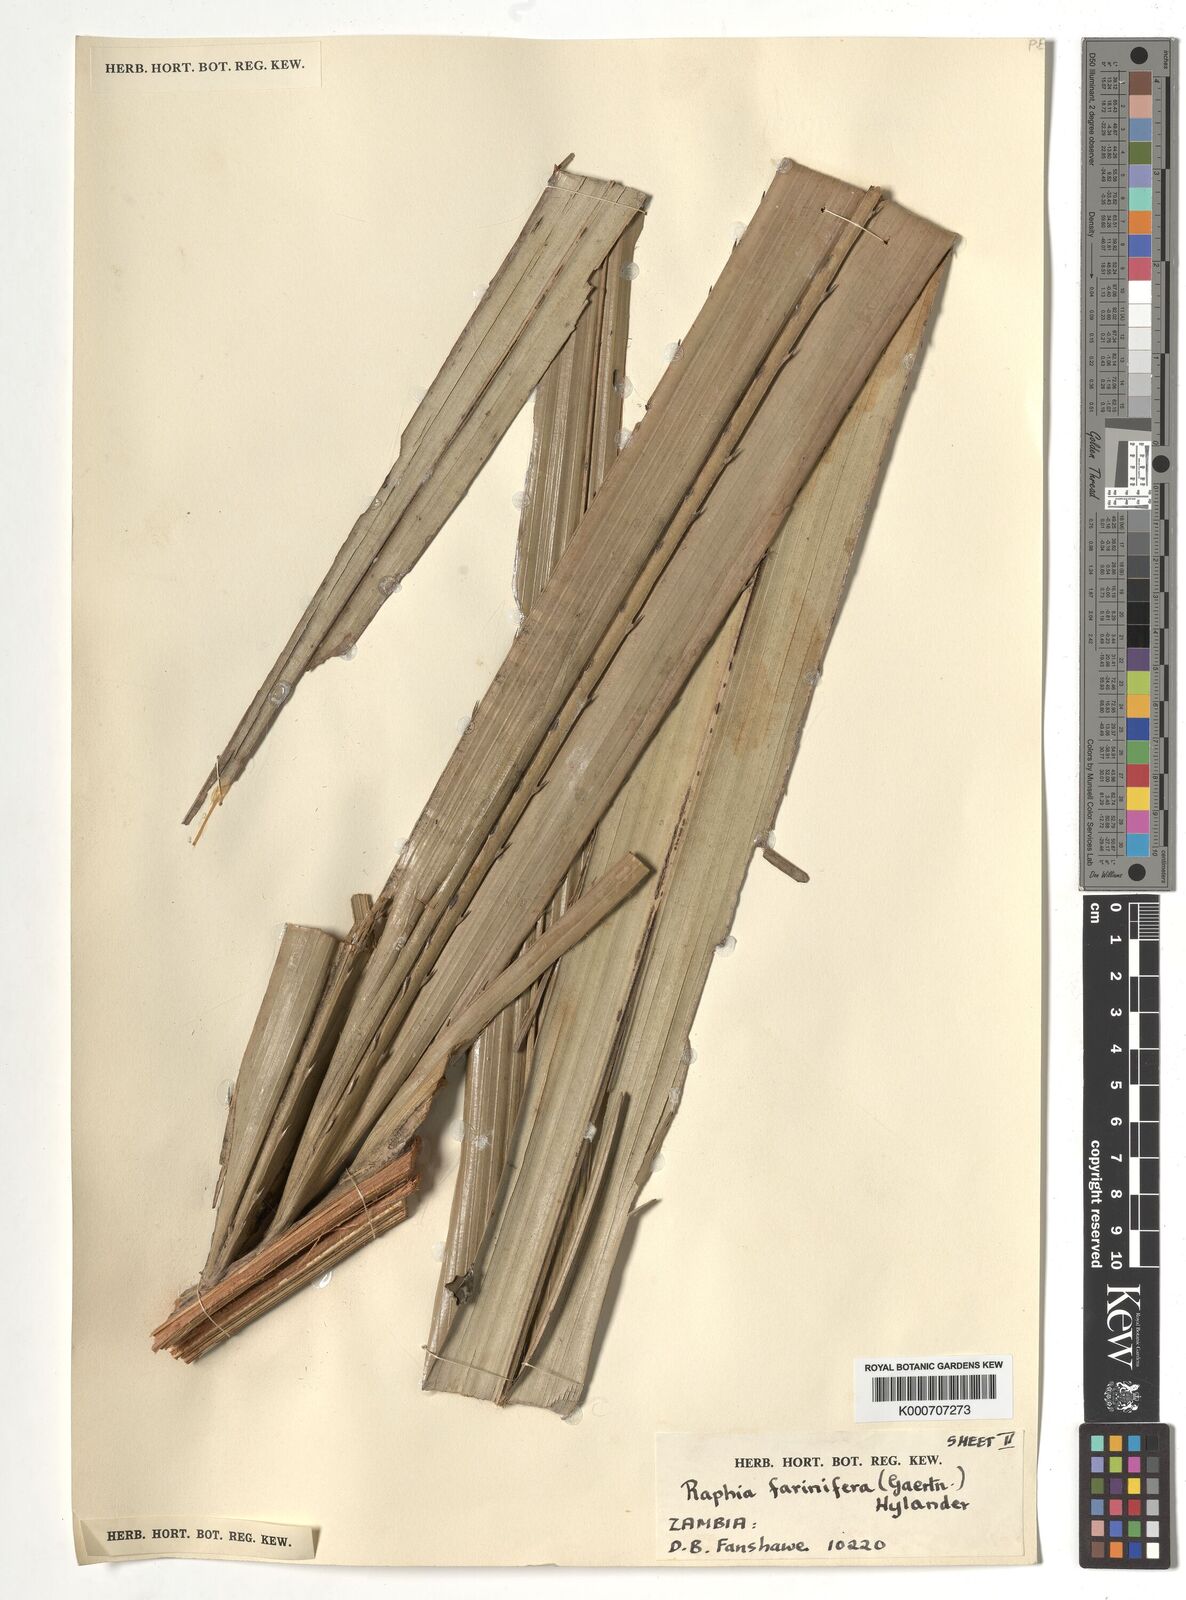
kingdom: Plantae
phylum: Tracheophyta
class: Liliopsida
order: Arecales
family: Arecaceae
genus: Raphia
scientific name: Raphia farinifera
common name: Raphia palm
